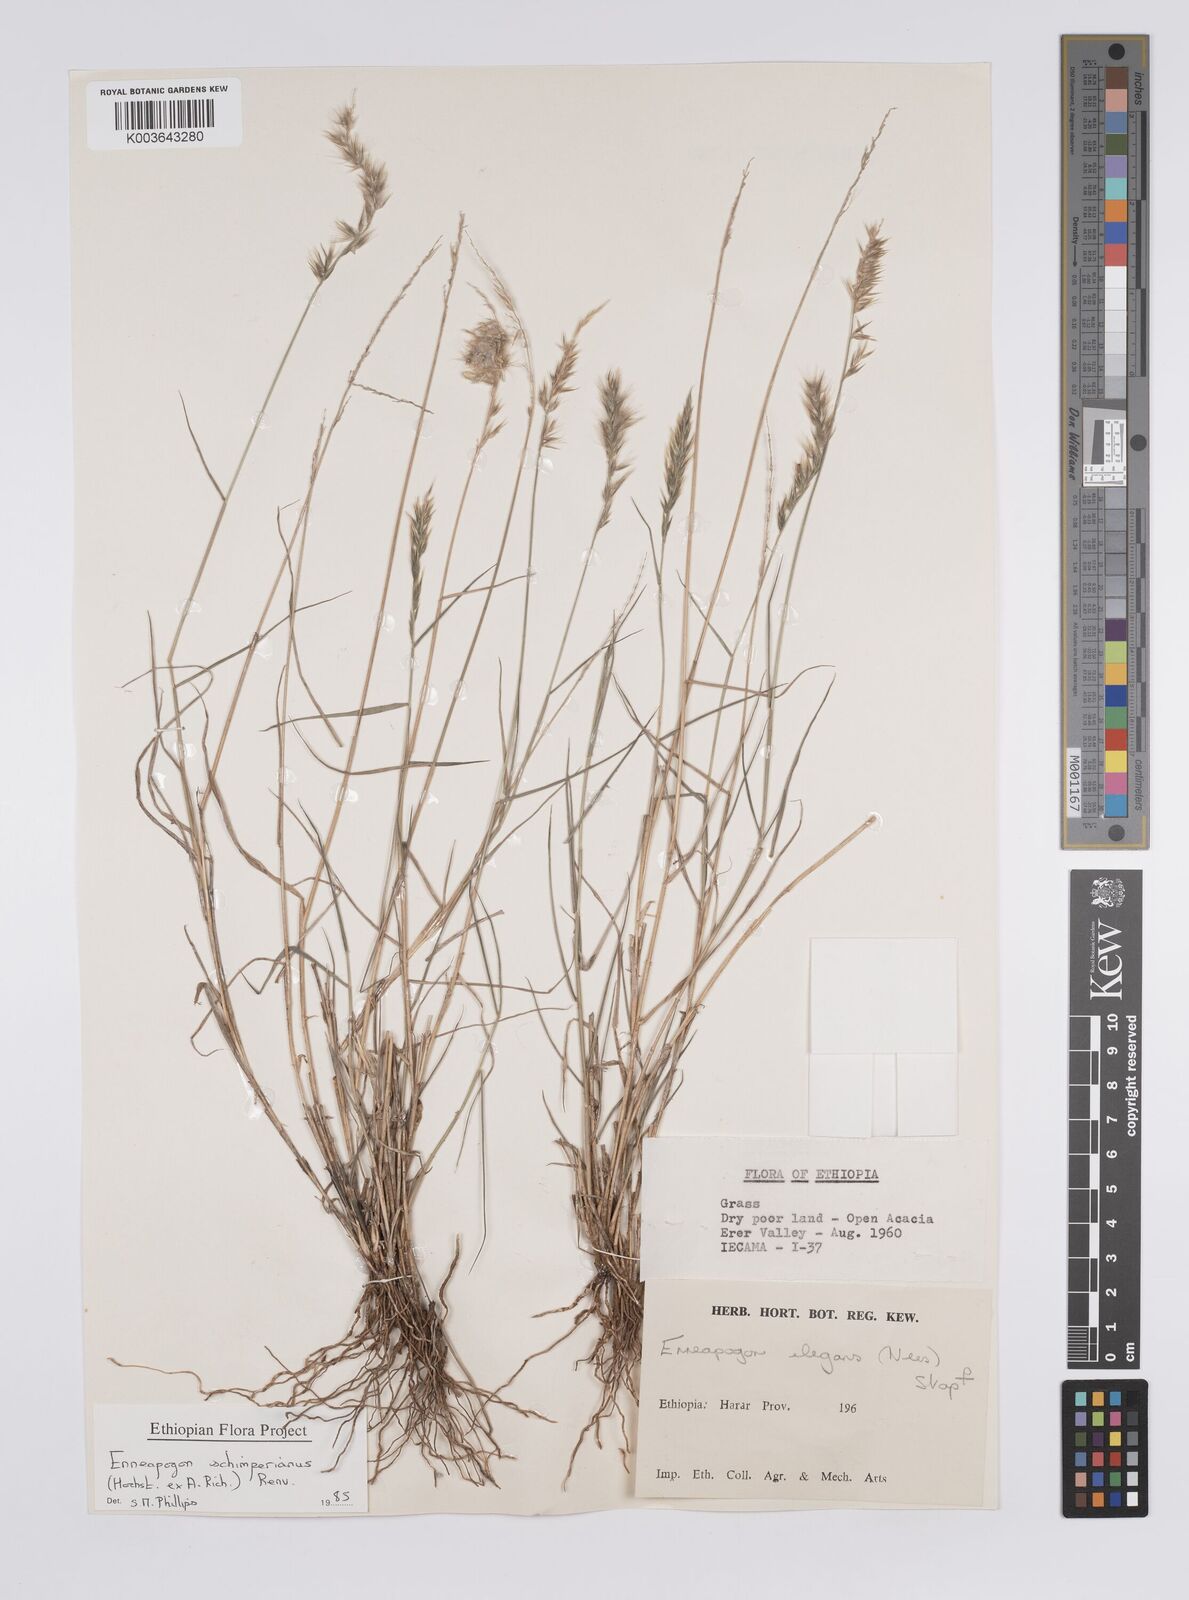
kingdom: Plantae
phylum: Tracheophyta
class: Liliopsida
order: Poales
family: Poaceae
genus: Enneapogon
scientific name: Enneapogon persicus
